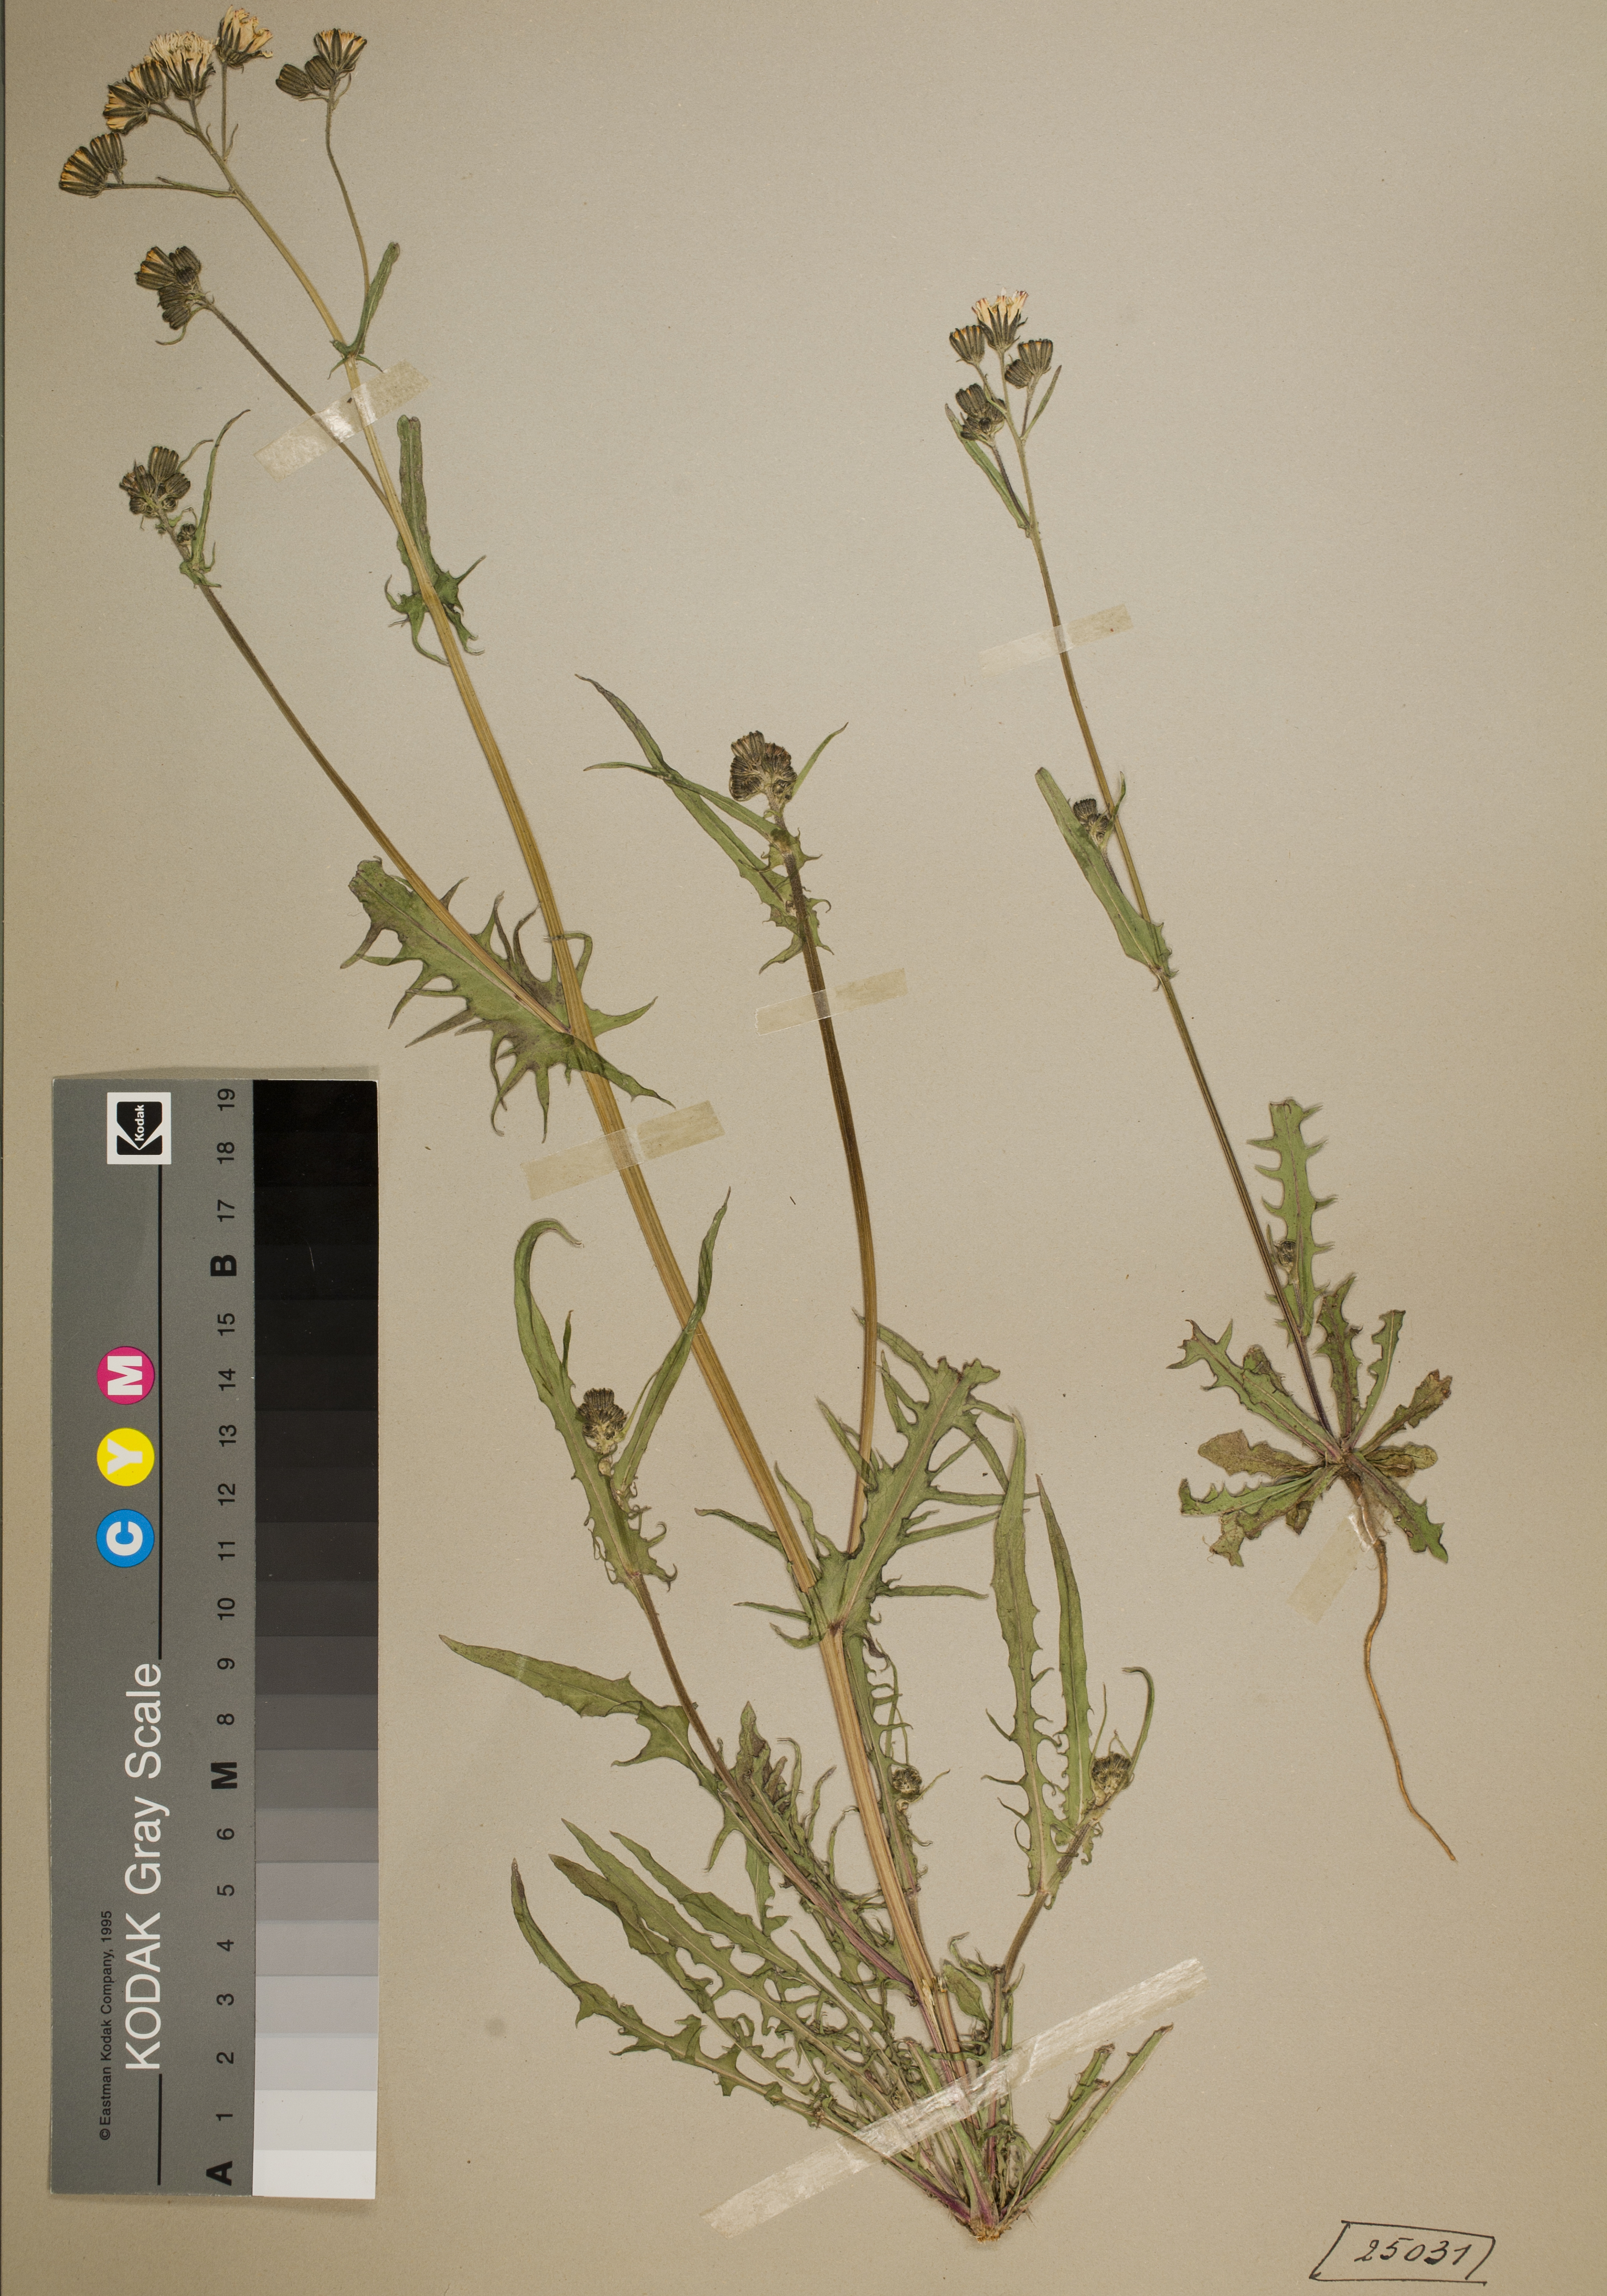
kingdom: Plantae
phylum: Tracheophyta
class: Magnoliopsida
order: Asterales
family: Asteraceae
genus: Crepis
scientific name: Crepis capillaris
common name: Smooth hawksbeard
